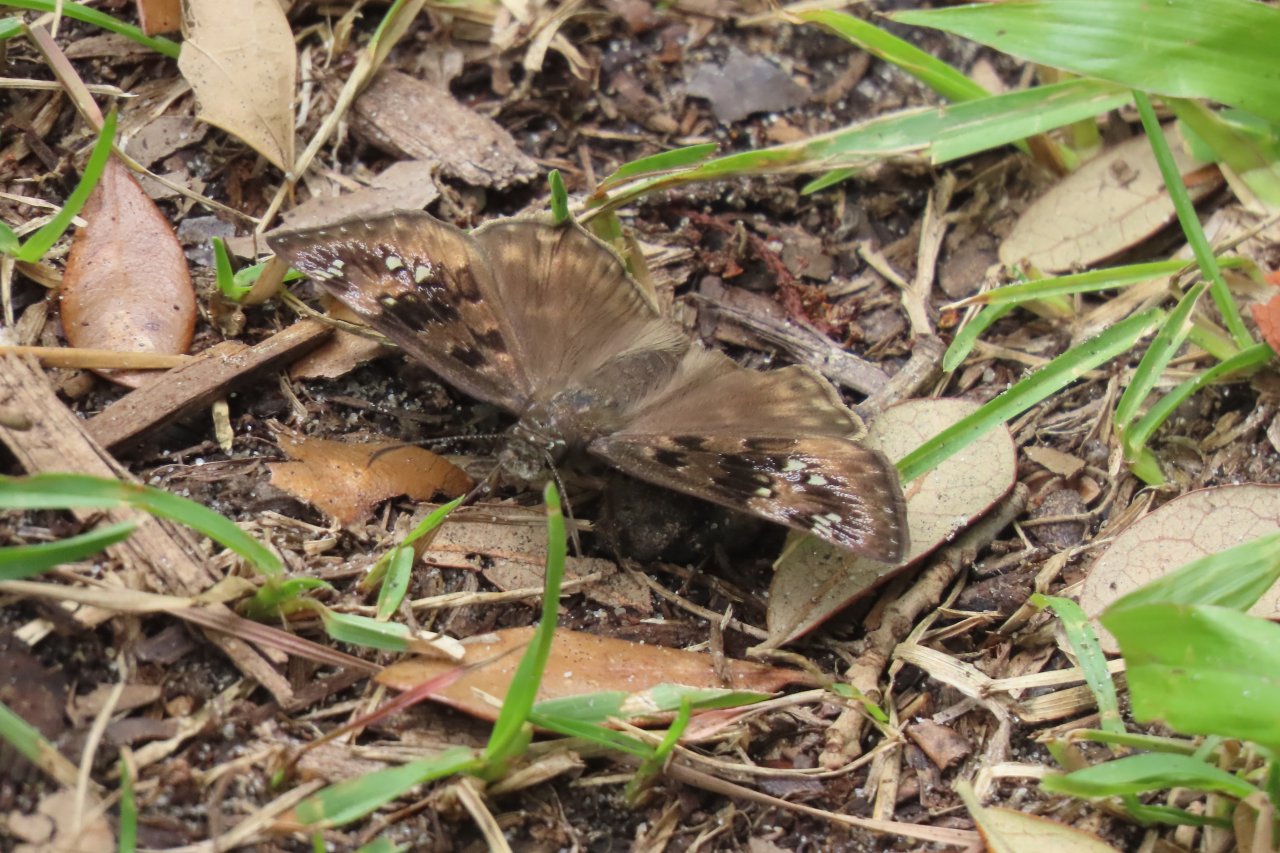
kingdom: Animalia
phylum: Arthropoda
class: Insecta
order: Lepidoptera
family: Hesperiidae
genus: Gesta
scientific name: Gesta
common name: Horace's Duskywing
